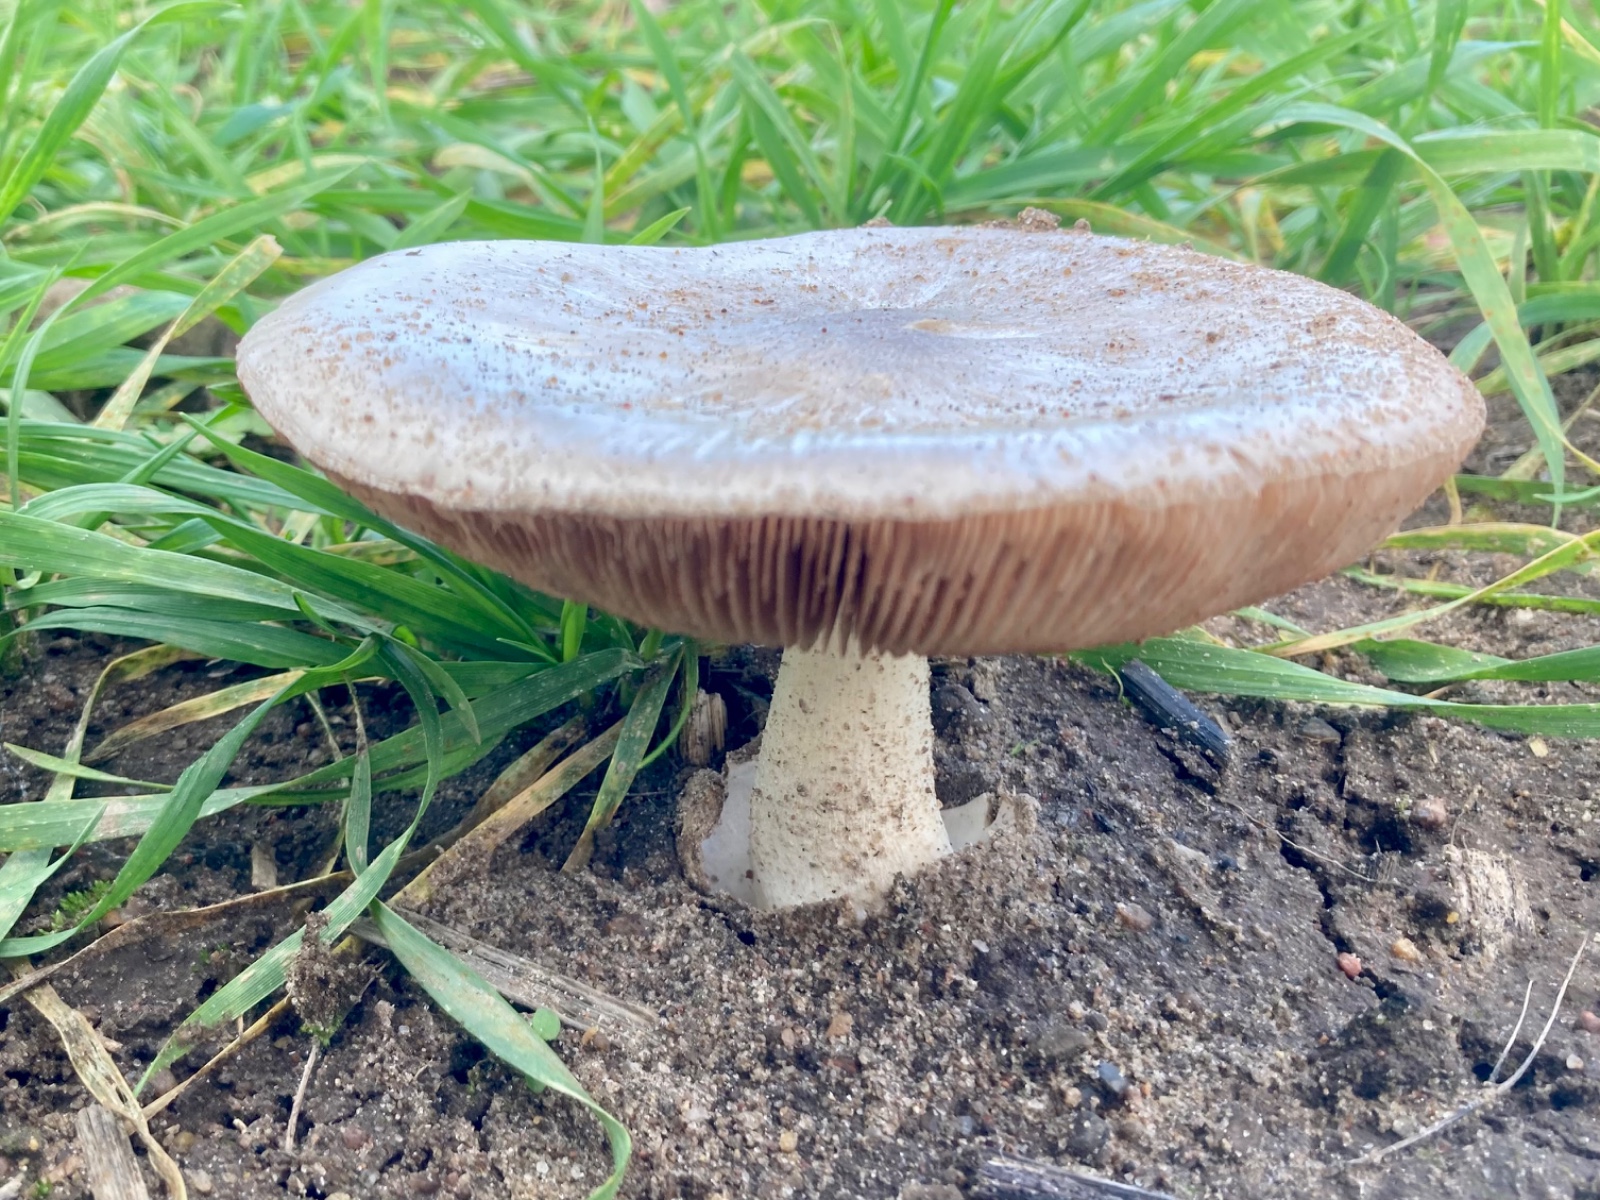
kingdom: Fungi
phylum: Basidiomycota
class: Agaricomycetes
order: Agaricales
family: Pluteaceae
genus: Volvopluteus
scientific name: Volvopluteus gloiocephalus
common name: høj posesvamp
